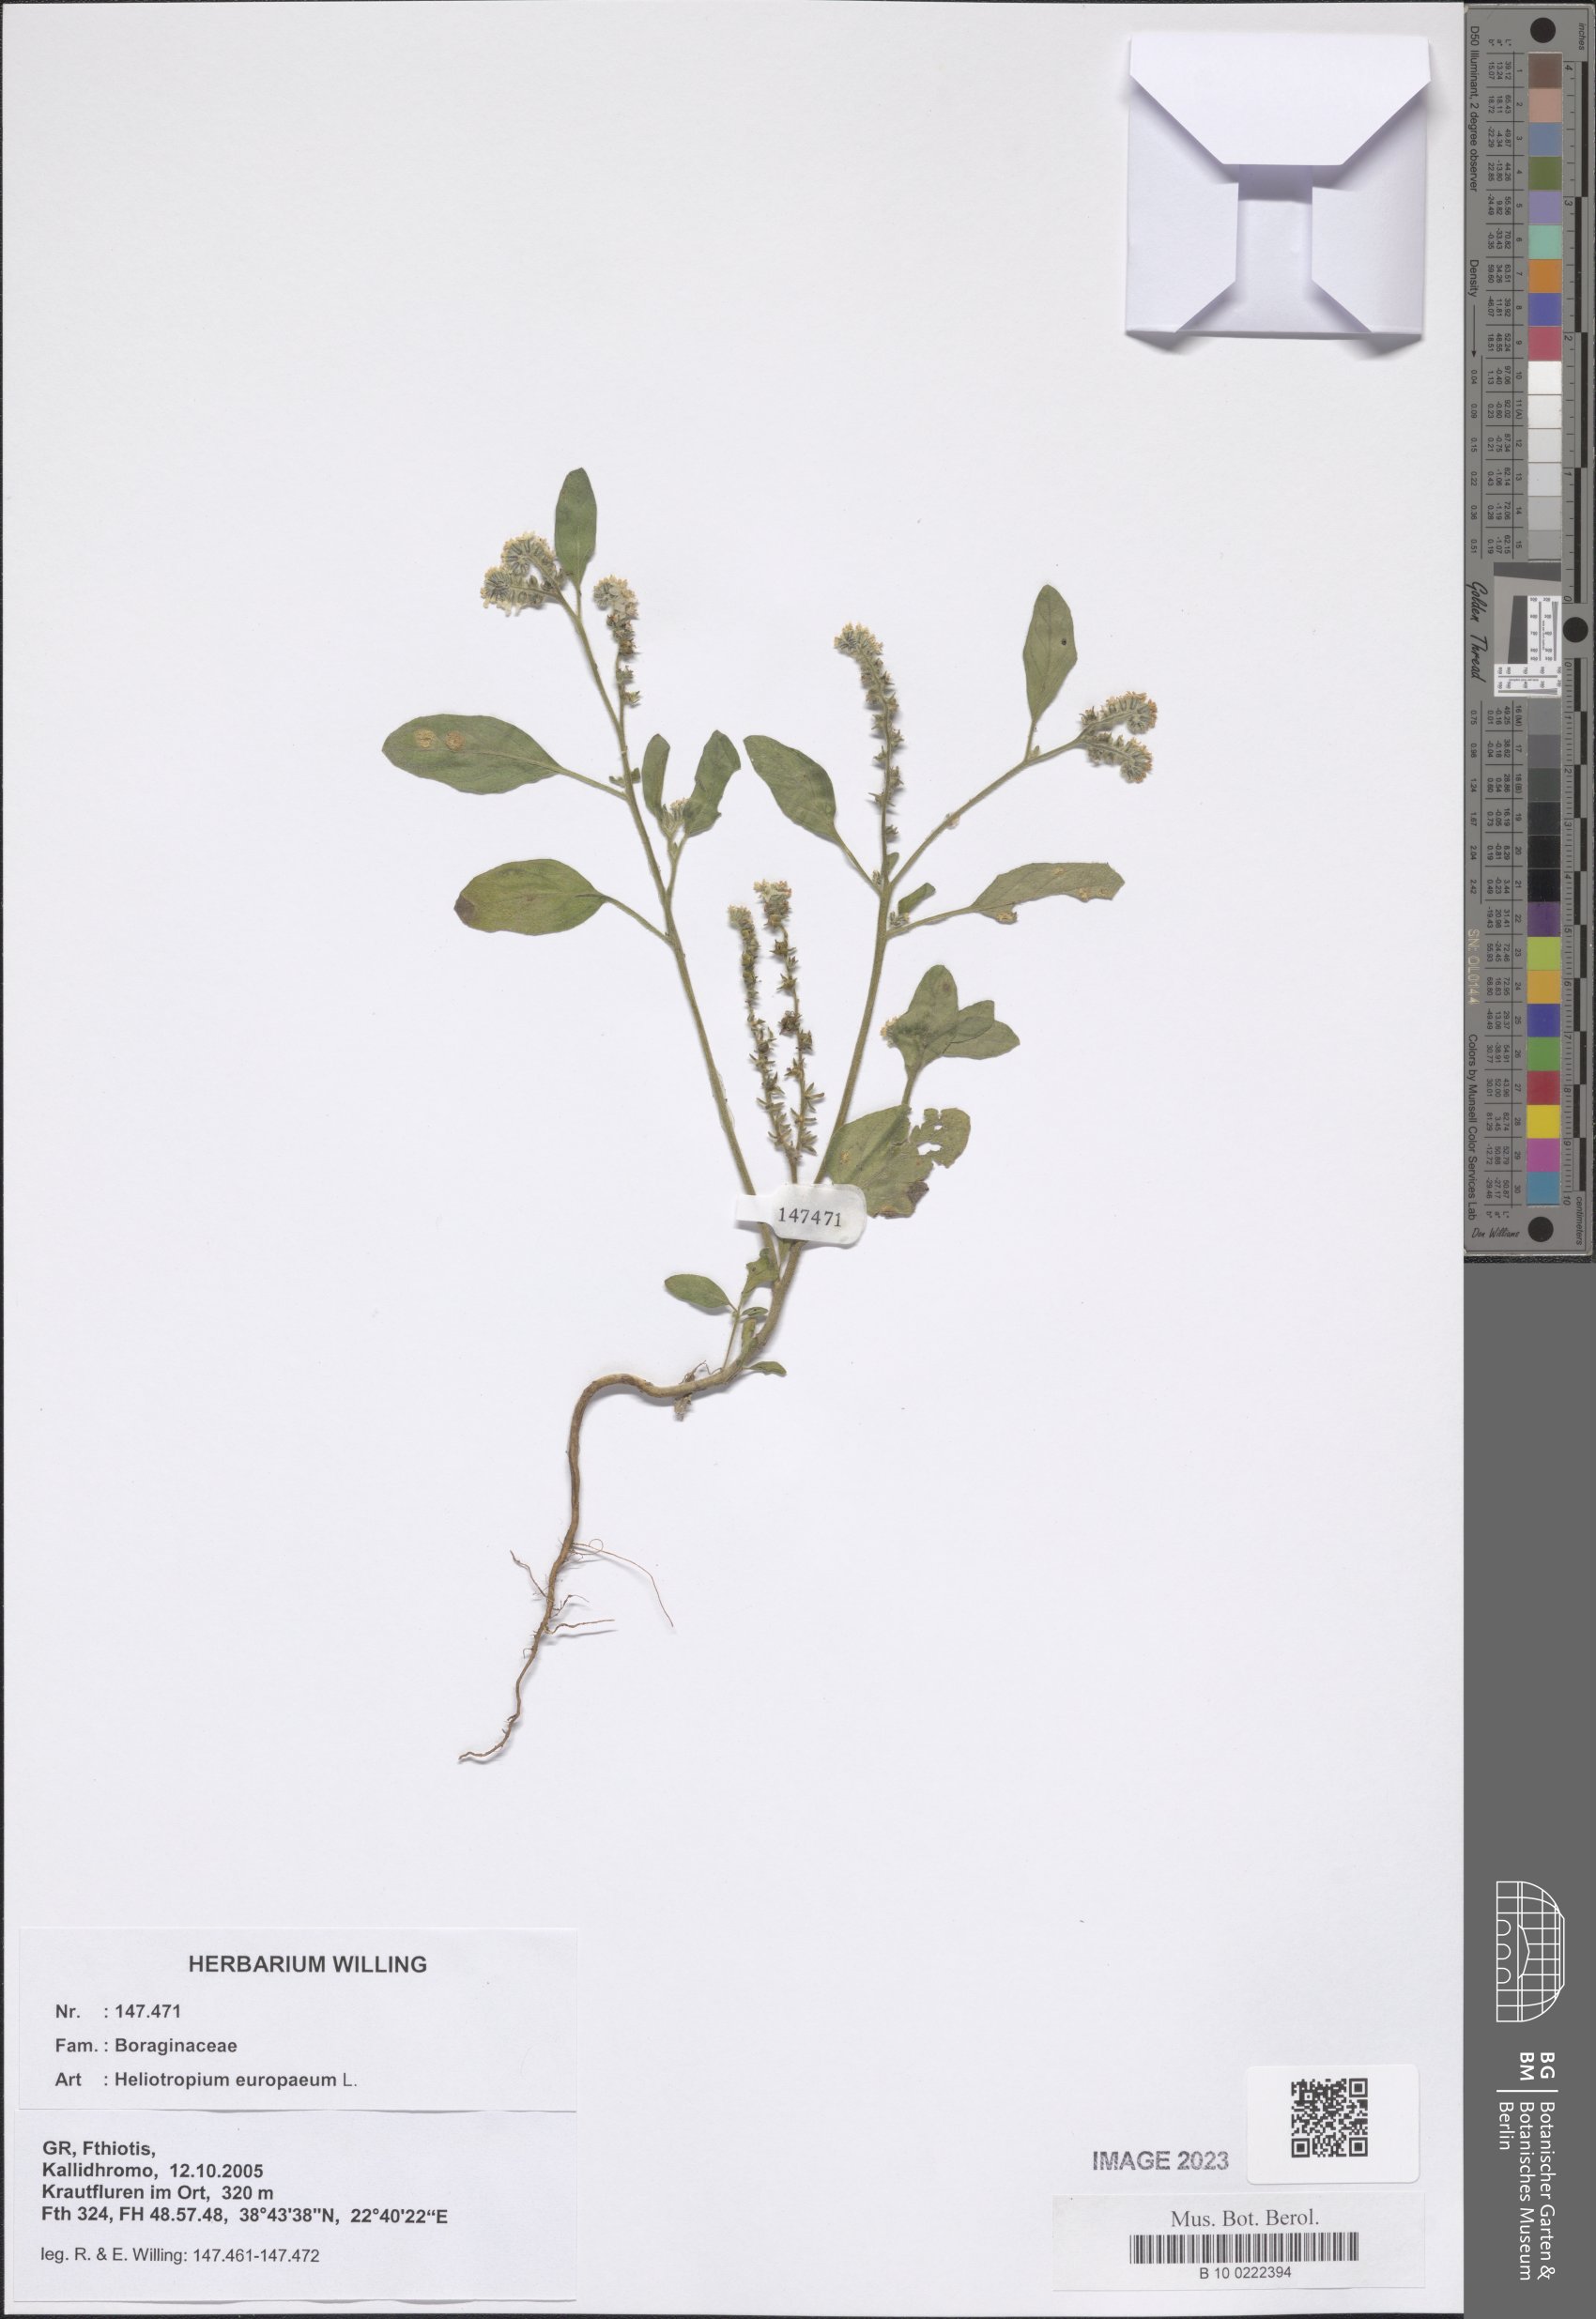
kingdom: Plantae
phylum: Tracheophyta
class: Magnoliopsida
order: Boraginales
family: Heliotropiaceae
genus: Heliotropium
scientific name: Heliotropium europaeum
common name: European heliotrope
